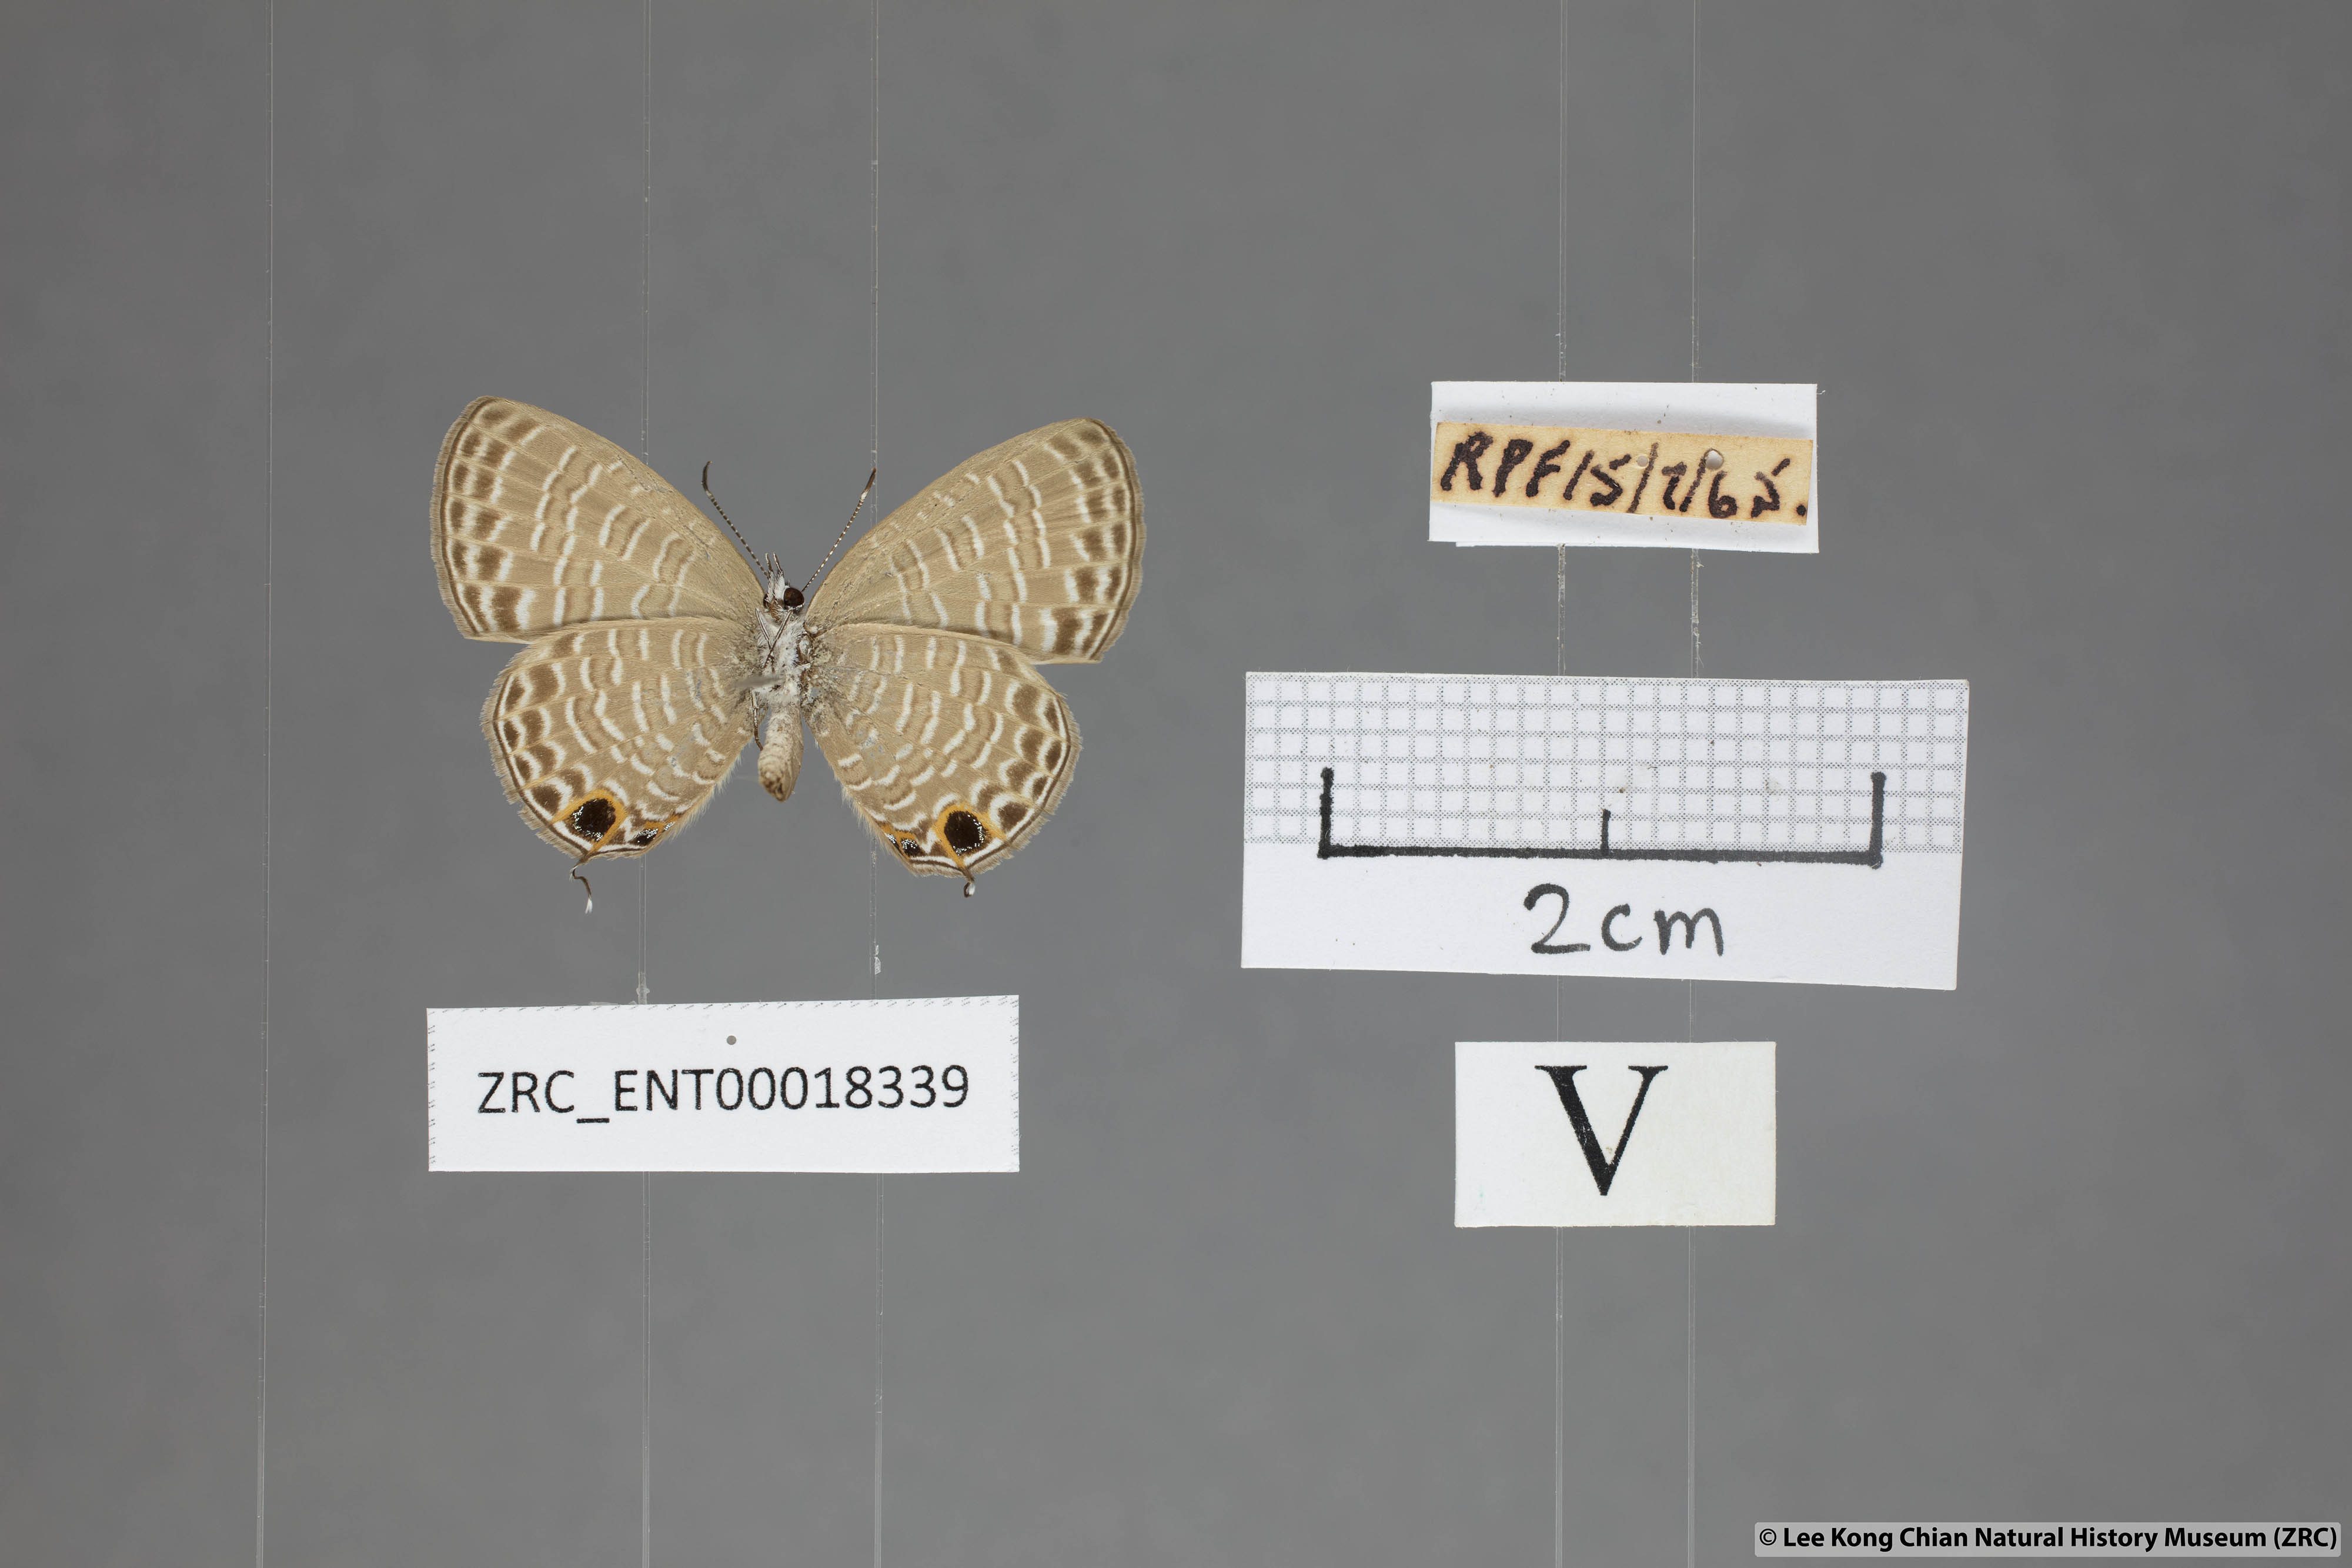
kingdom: Animalia
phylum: Arthropoda
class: Insecta
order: Lepidoptera
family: Lycaenidae
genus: Nacaduba
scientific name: Nacaduba calauria
